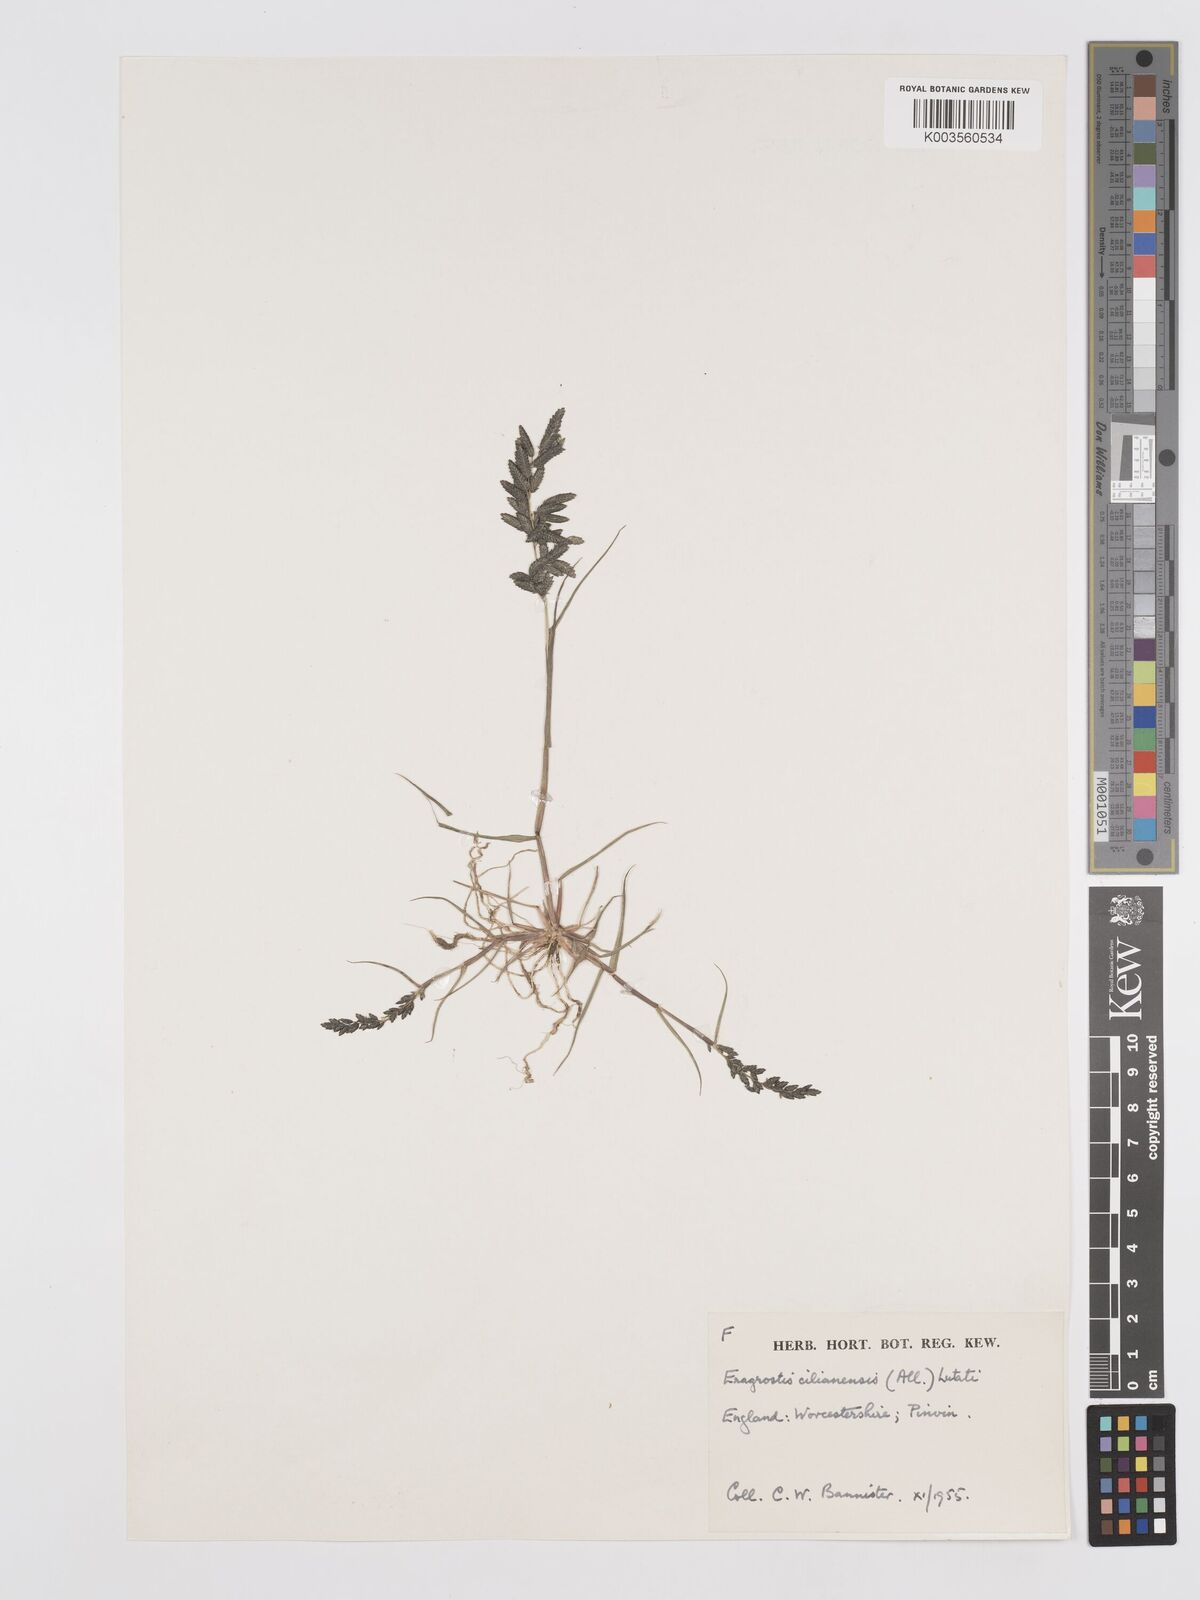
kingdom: Plantae
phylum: Tracheophyta
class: Liliopsida
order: Poales
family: Poaceae
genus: Eragrostis
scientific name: Eragrostis cilianensis
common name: Stinkgrass
